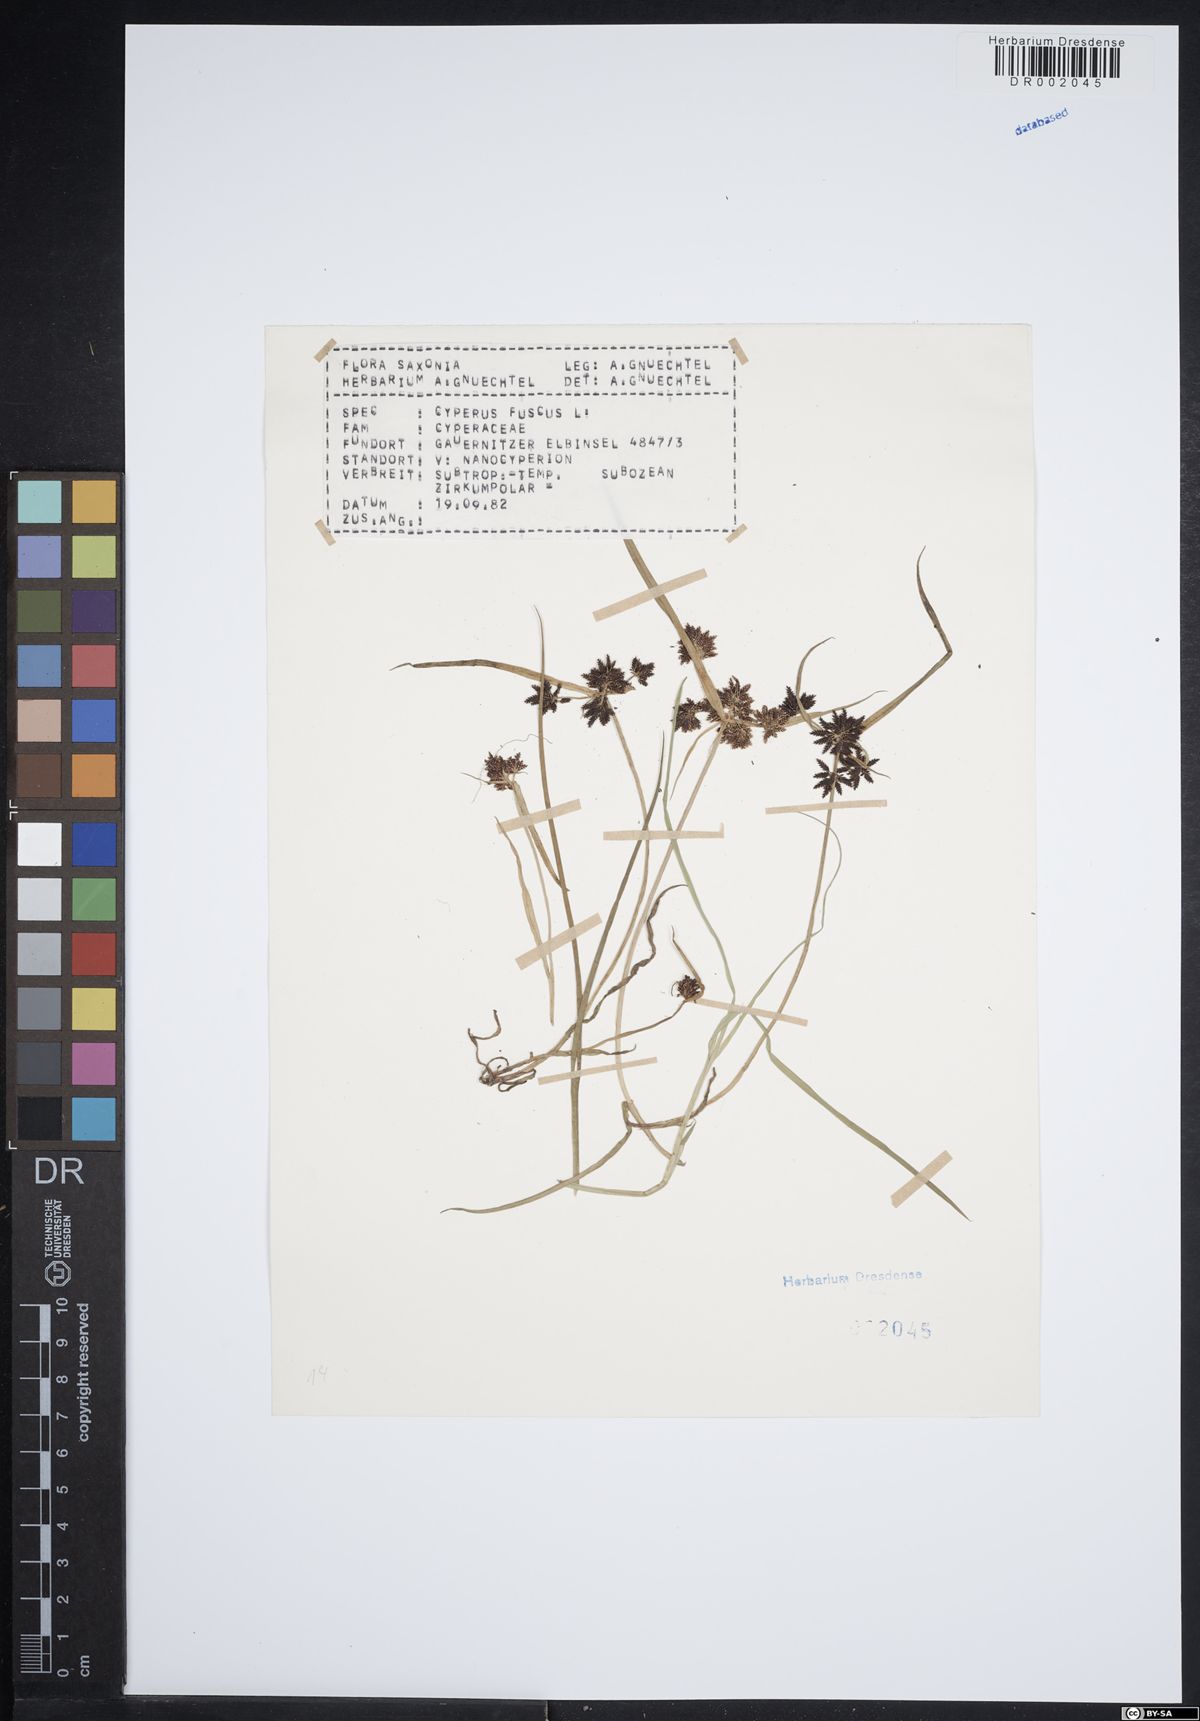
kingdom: Plantae
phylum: Tracheophyta
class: Liliopsida
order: Poales
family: Cyperaceae
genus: Cyperus
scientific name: Cyperus fuscus
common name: Brown galingale
